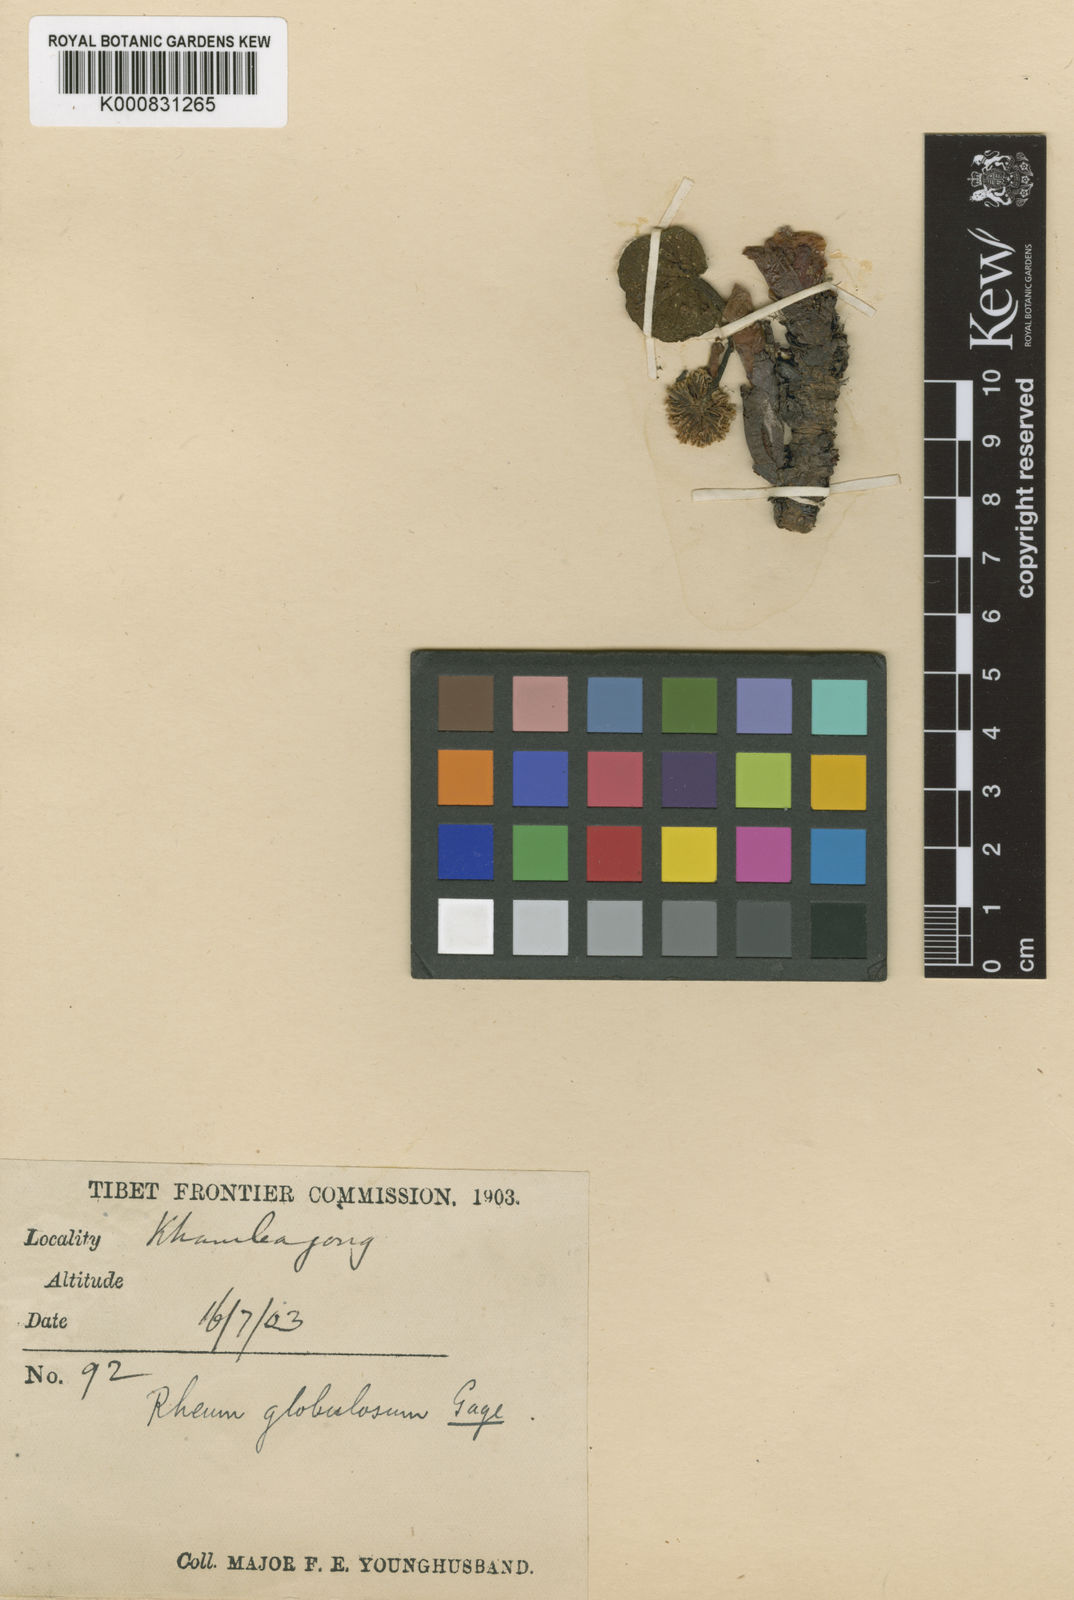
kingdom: Plantae
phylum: Tracheophyta
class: Magnoliopsida
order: Caryophyllales
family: Polygonaceae
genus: Rheum
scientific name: Rheum globulosum
